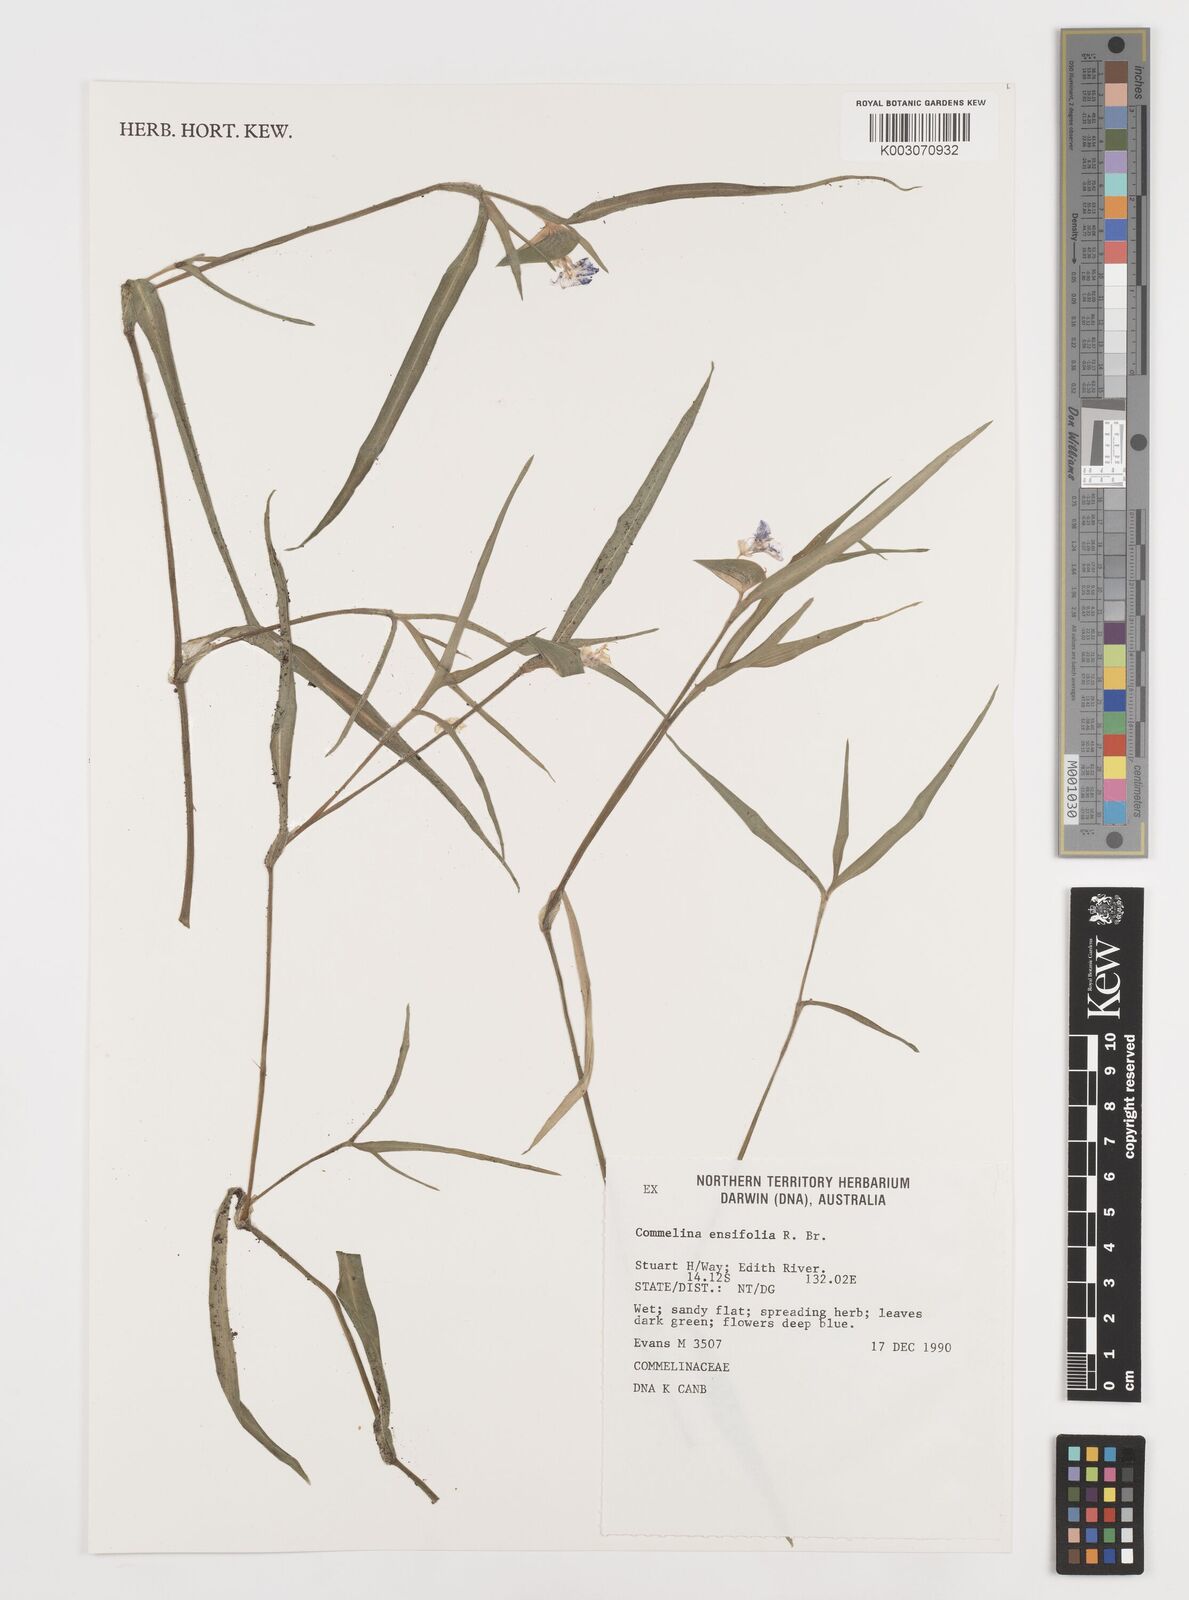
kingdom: Plantae
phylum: Tracheophyta
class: Liliopsida
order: Commelinales
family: Commelinaceae
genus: Commelina
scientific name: Commelina ensifolia
